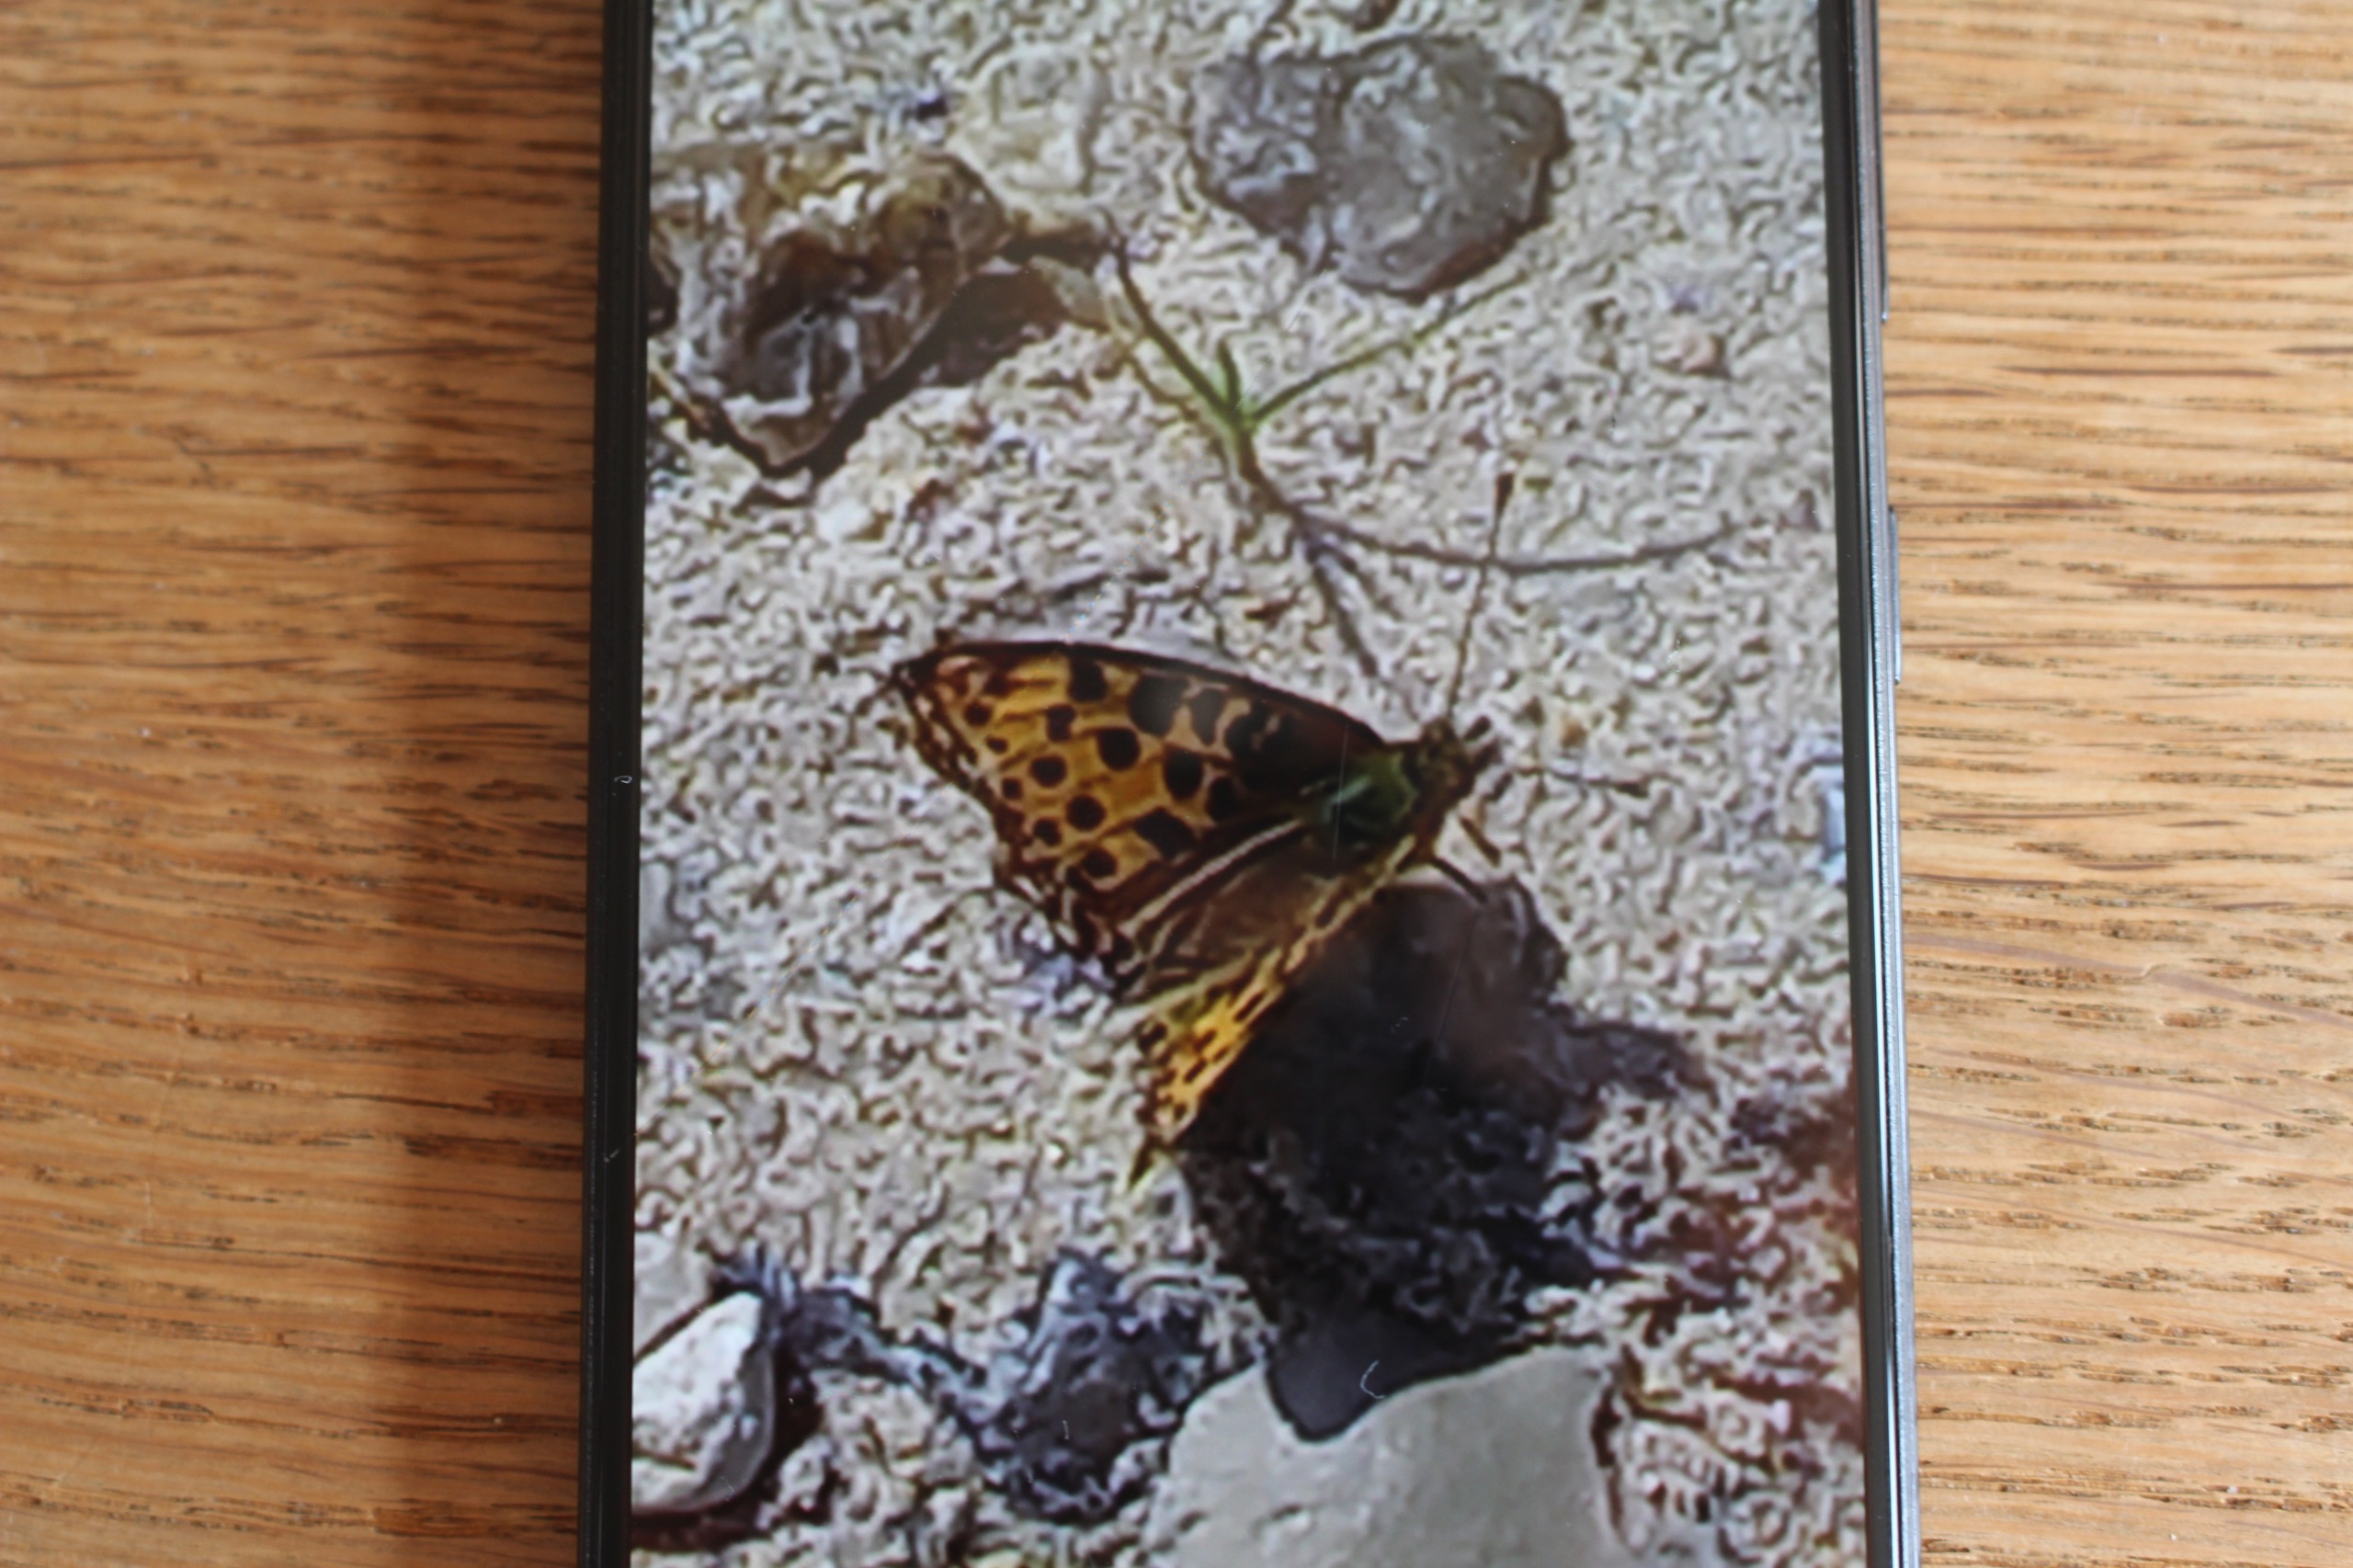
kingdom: Animalia
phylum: Arthropoda
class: Insecta
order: Lepidoptera
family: Nymphalidae
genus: Issoria
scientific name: Issoria lathonia
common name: Storplettet perlemorsommerfugl
